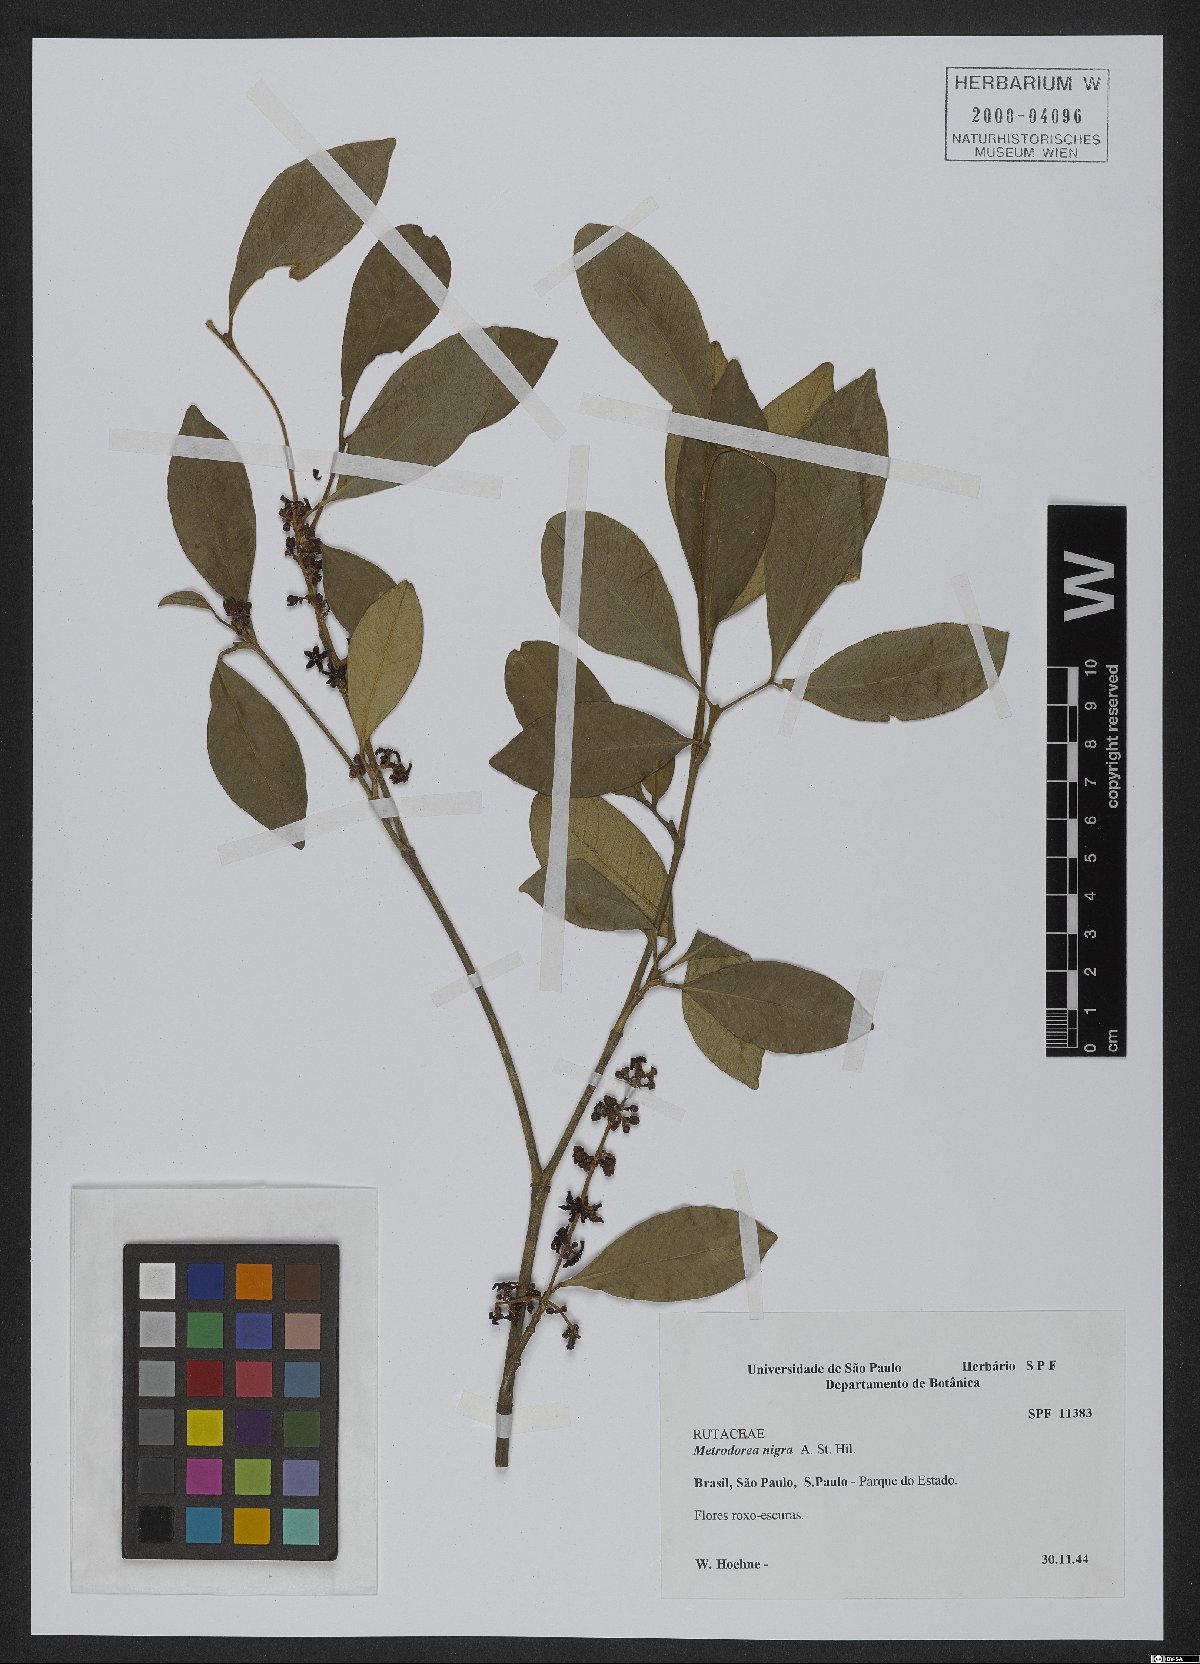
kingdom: Plantae
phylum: Tracheophyta
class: Magnoliopsida
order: Sapindales
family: Rutaceae
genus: Metrodorea
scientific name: Metrodorea nigra
